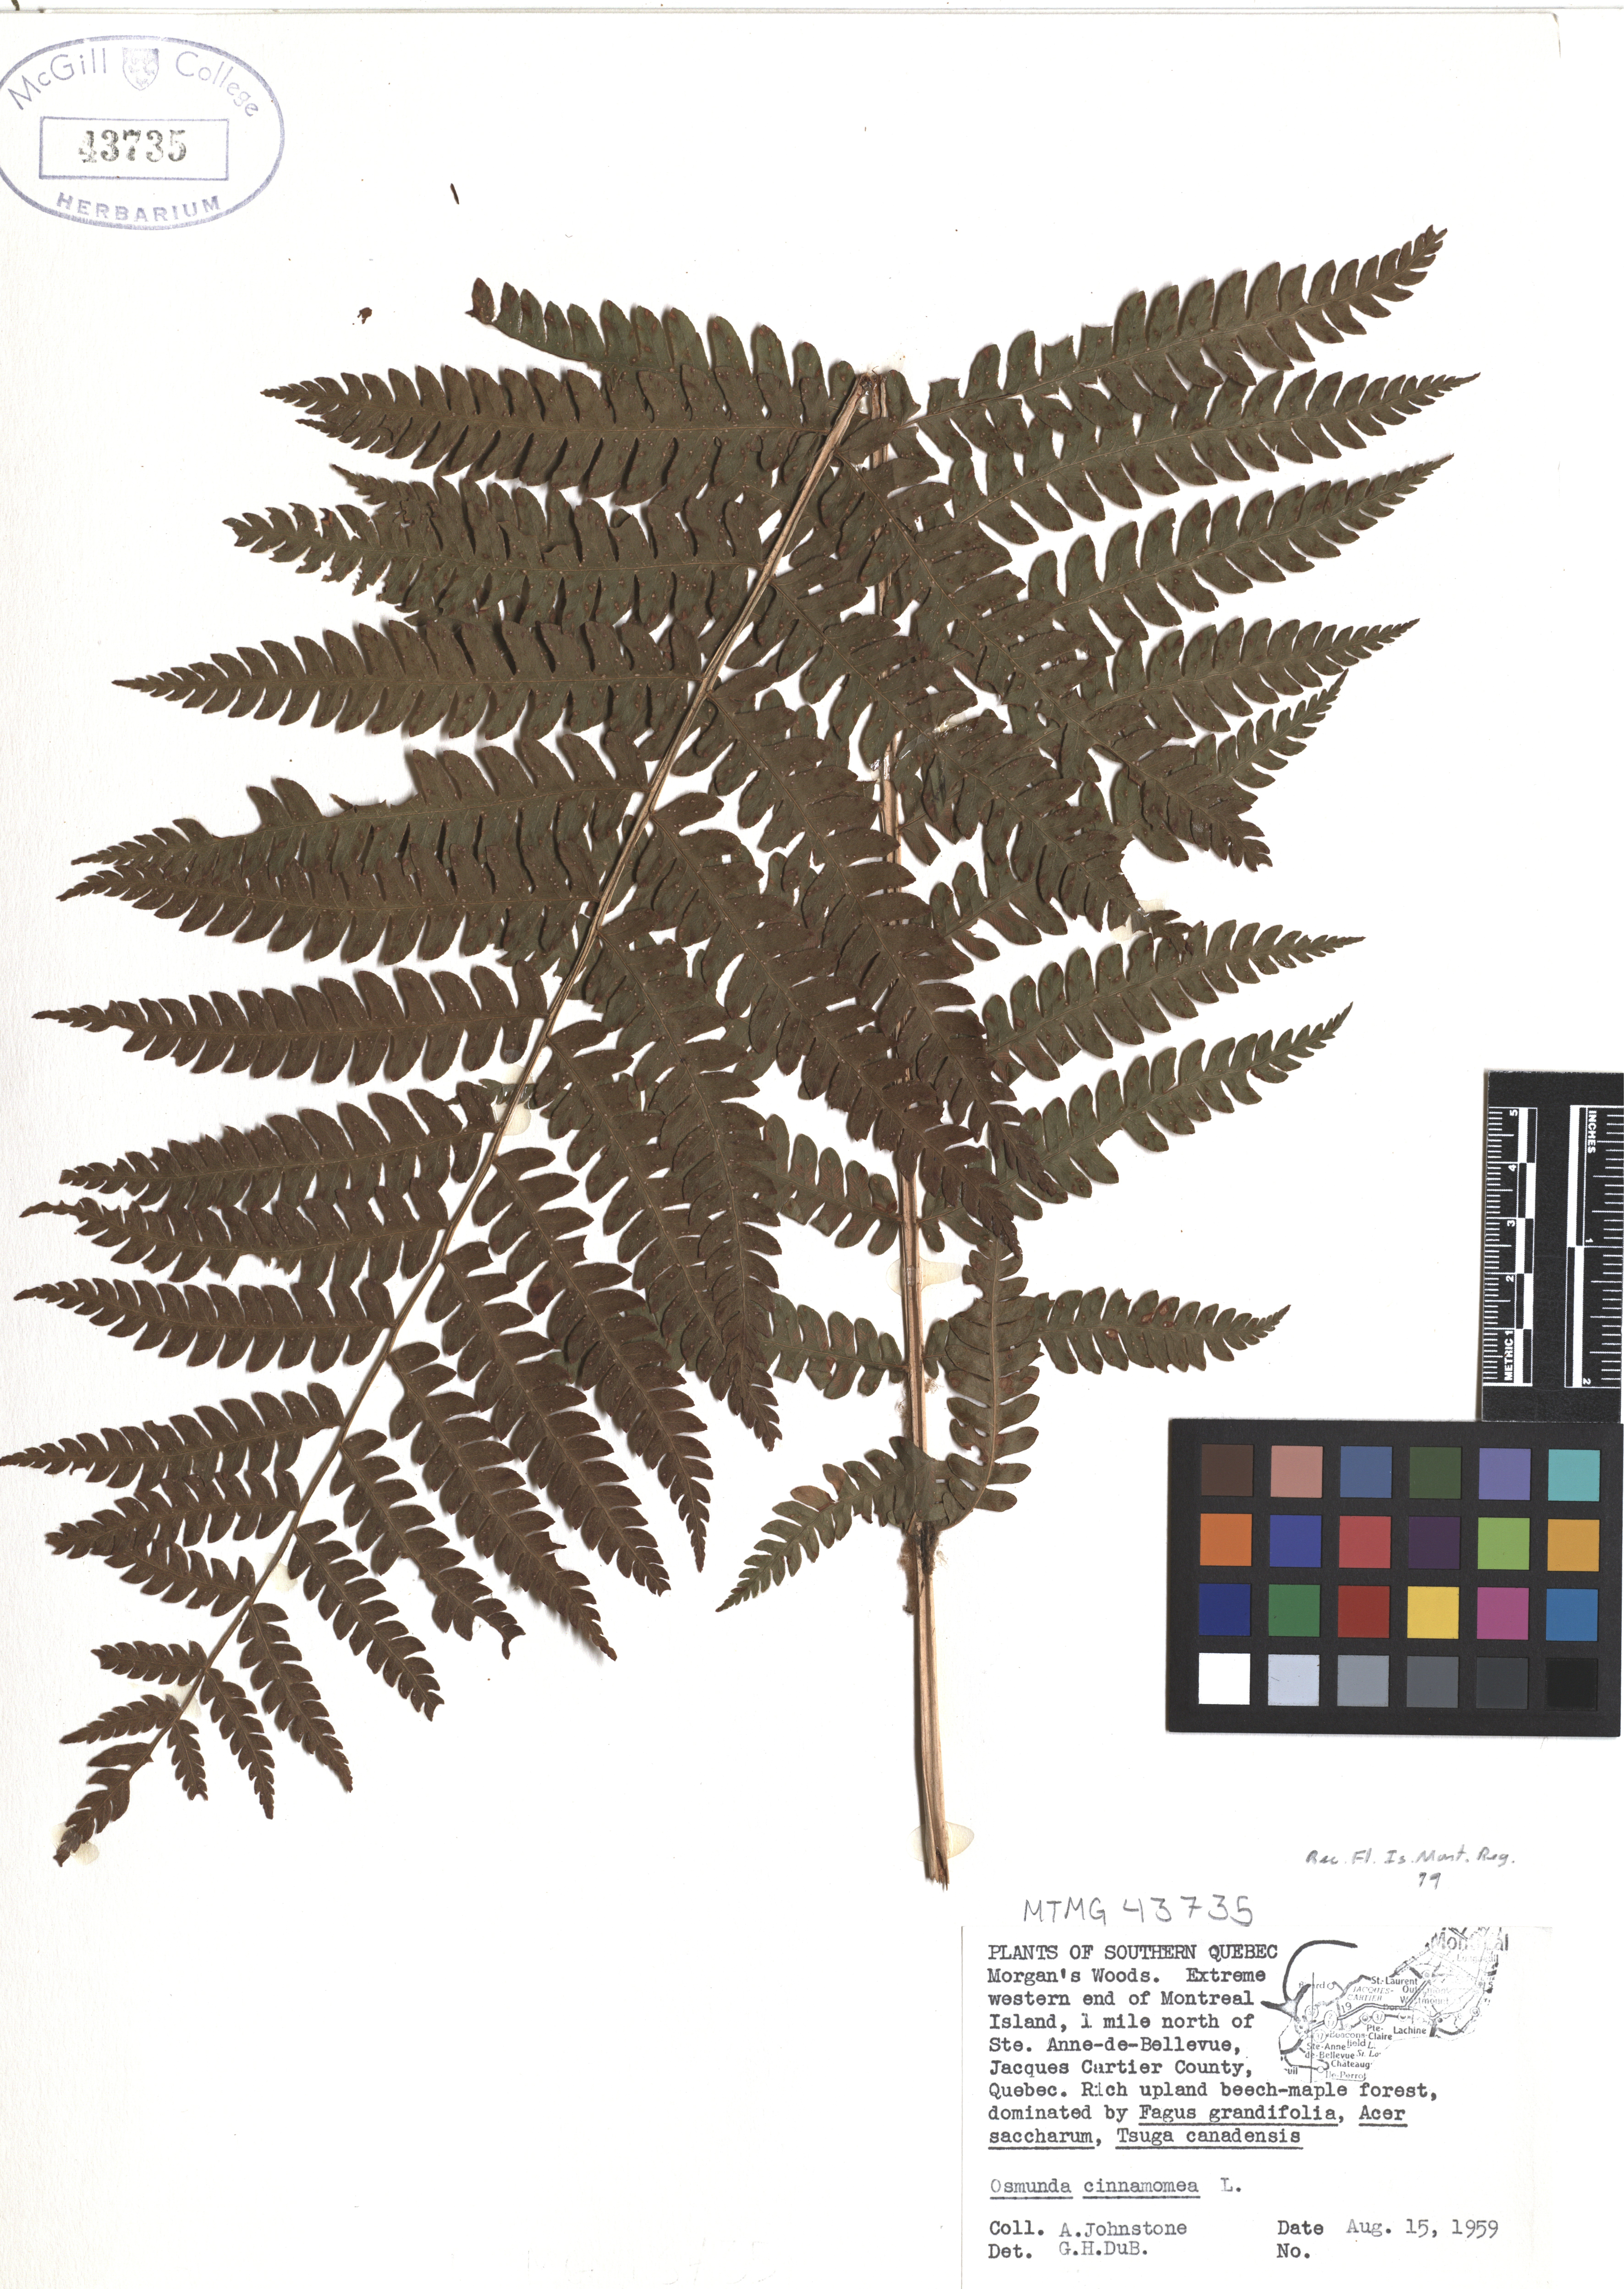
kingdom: Plantae
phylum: Tracheophyta
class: Polypodiopsida
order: Osmundales
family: Osmundaceae
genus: Osmundastrum
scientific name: Osmundastrum cinnamomeum
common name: Cinnamon fern
